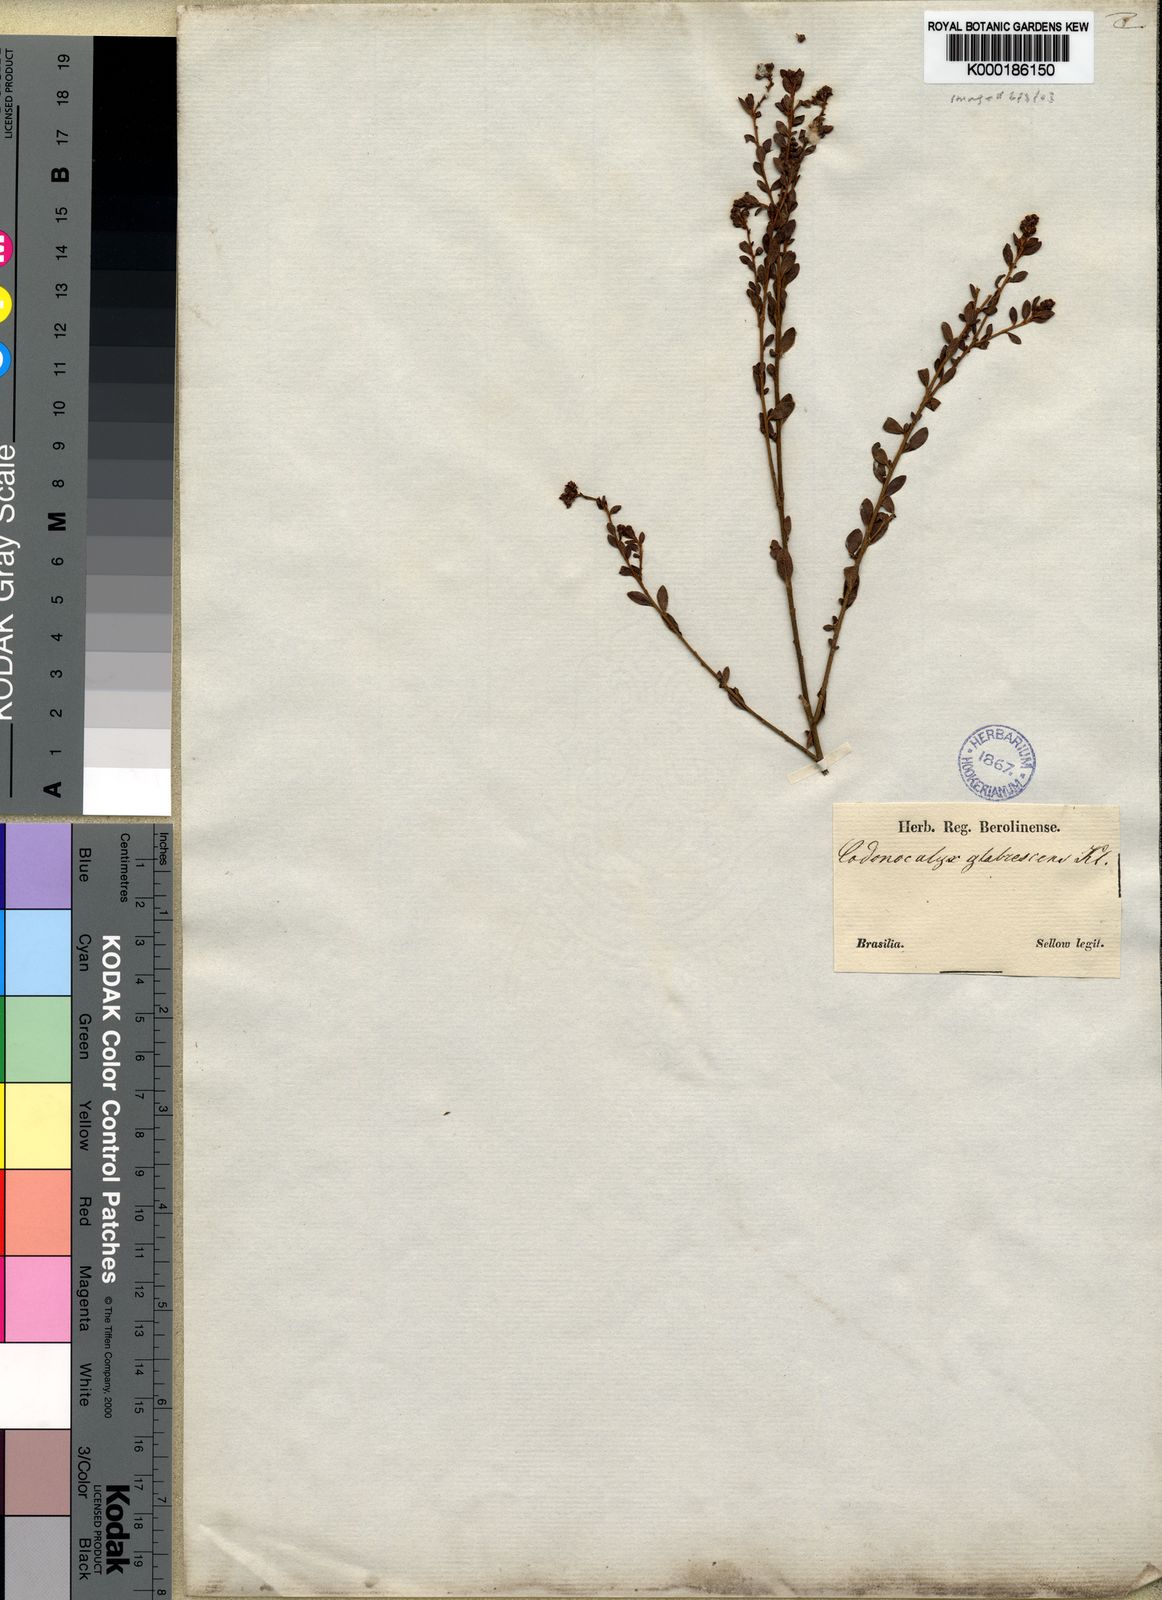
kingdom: Plantae
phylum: Tracheophyta
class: Magnoliopsida
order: Malpighiales
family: Euphorbiaceae
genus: Croton
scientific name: Croton
